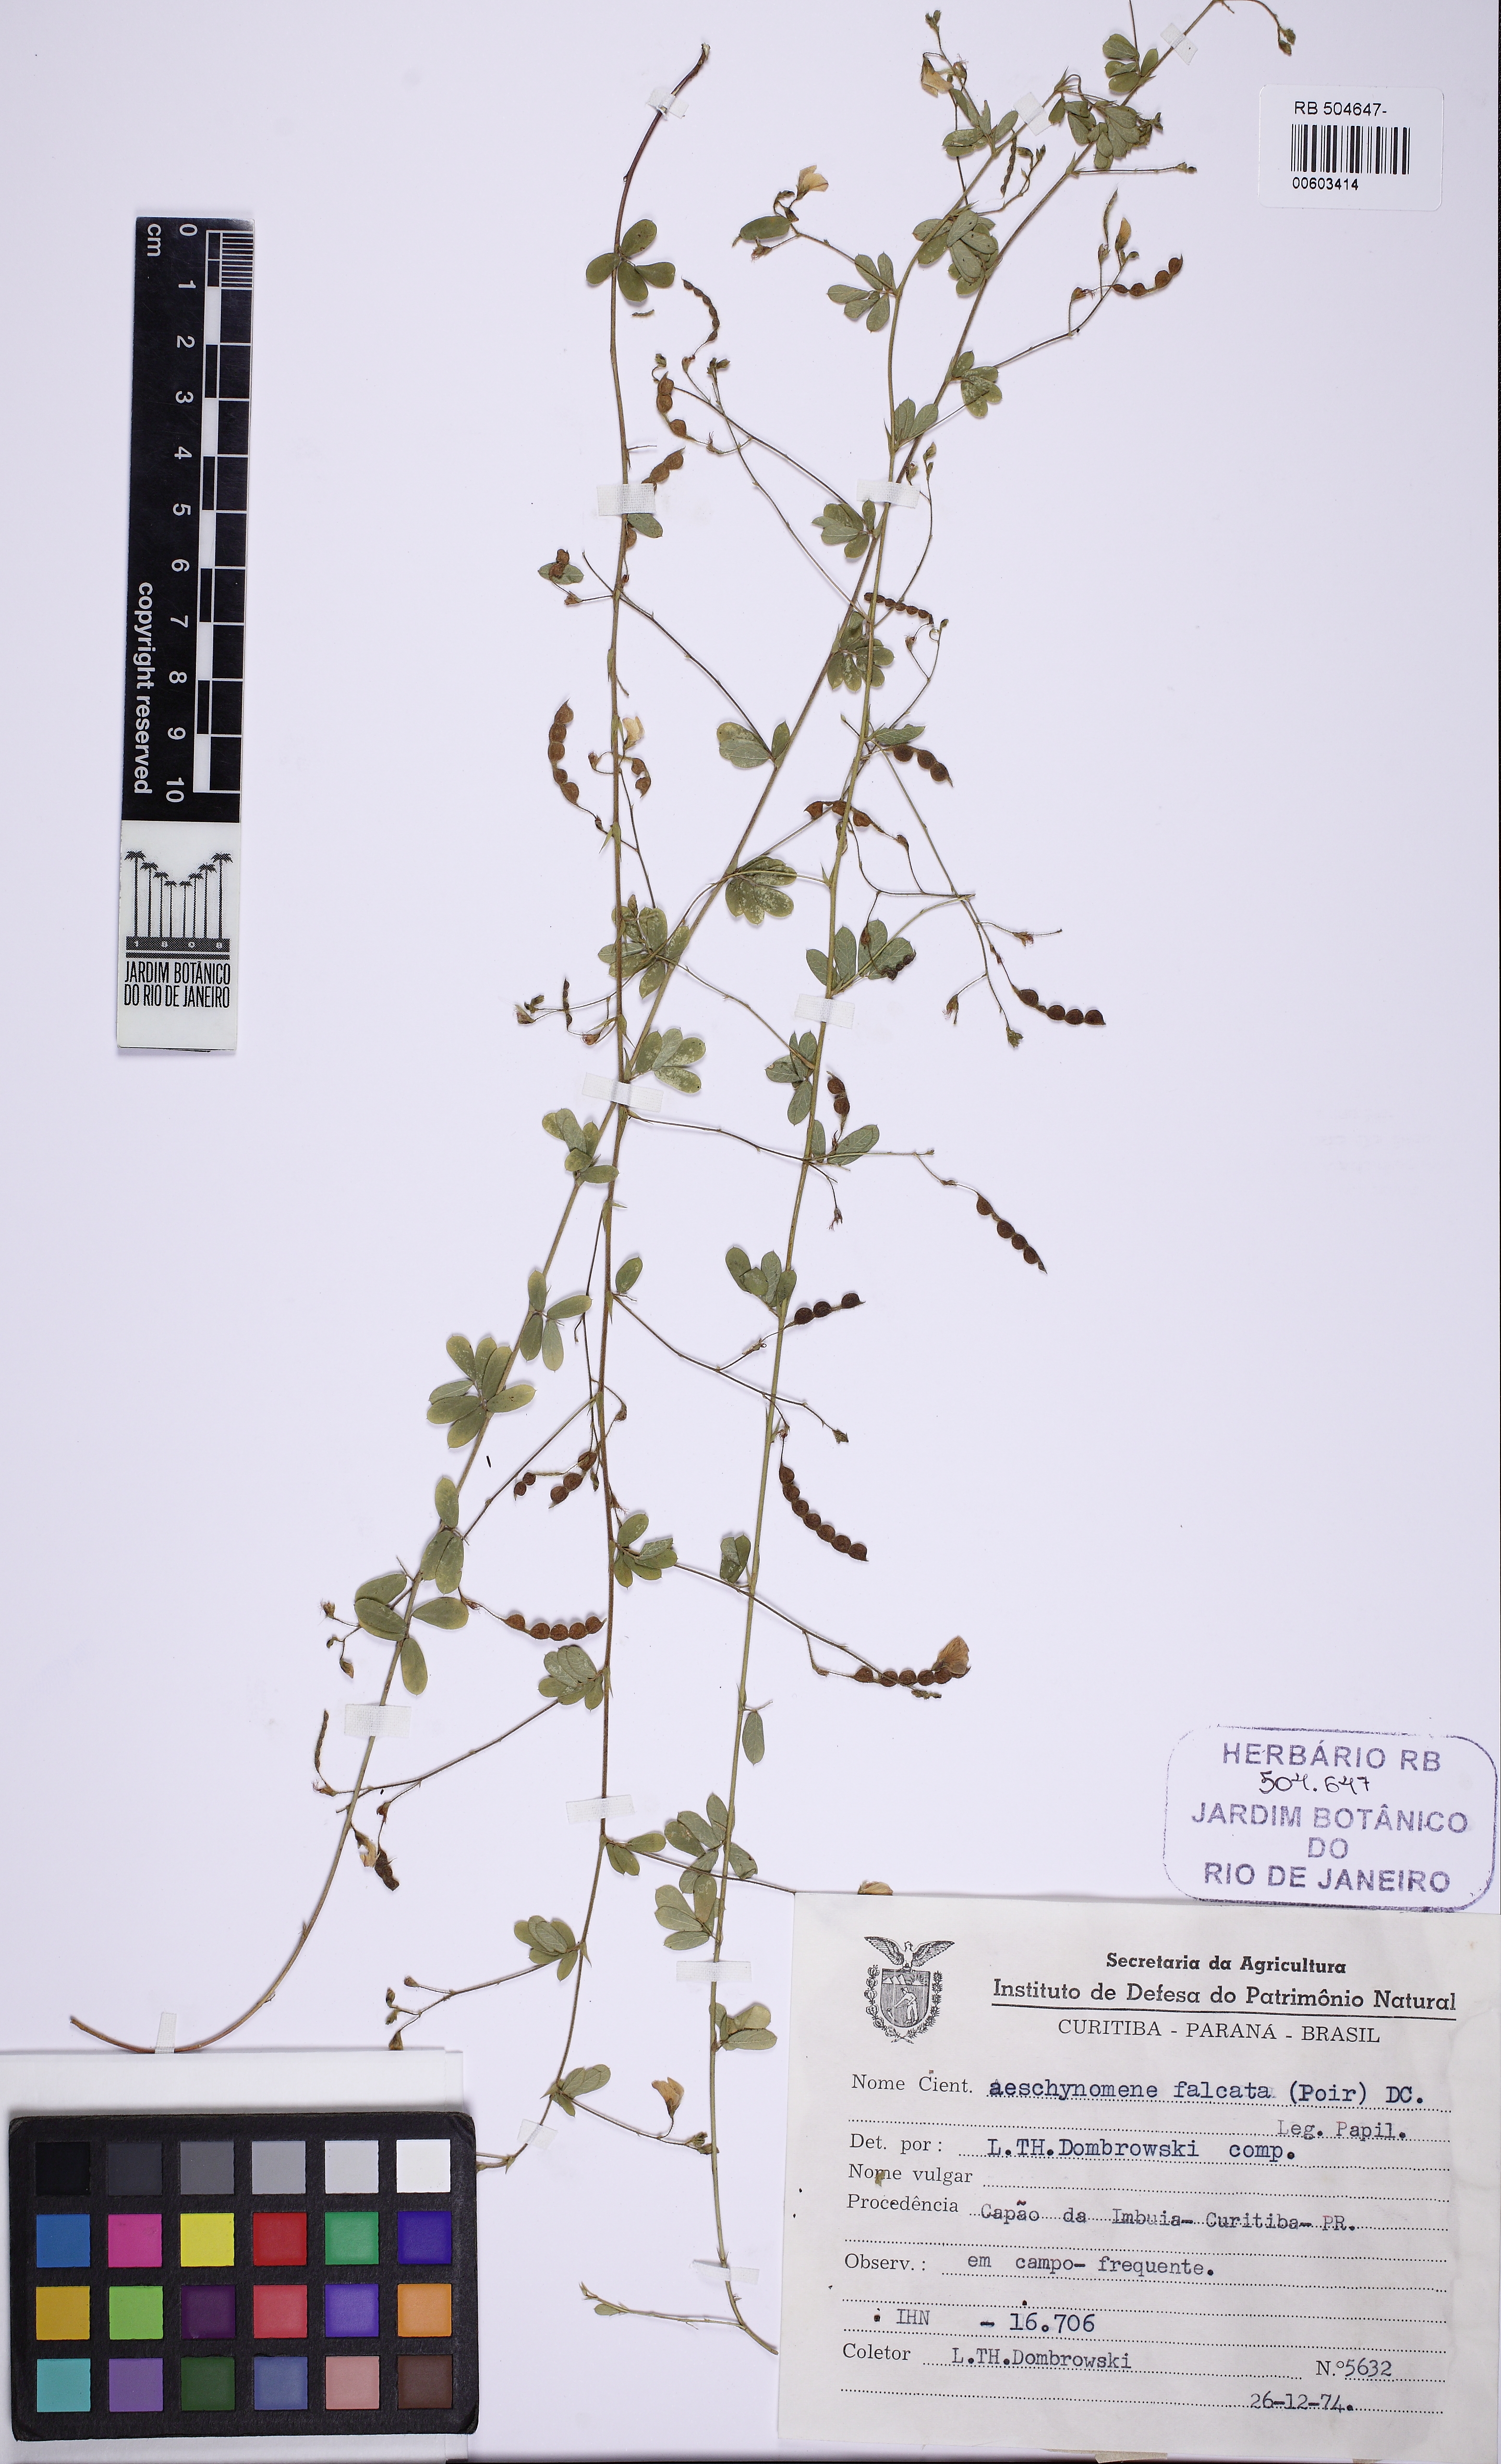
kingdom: Plantae
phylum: Tracheophyta
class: Magnoliopsida
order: Fabales
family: Fabaceae
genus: Ctenodon
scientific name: Ctenodon falcatus
